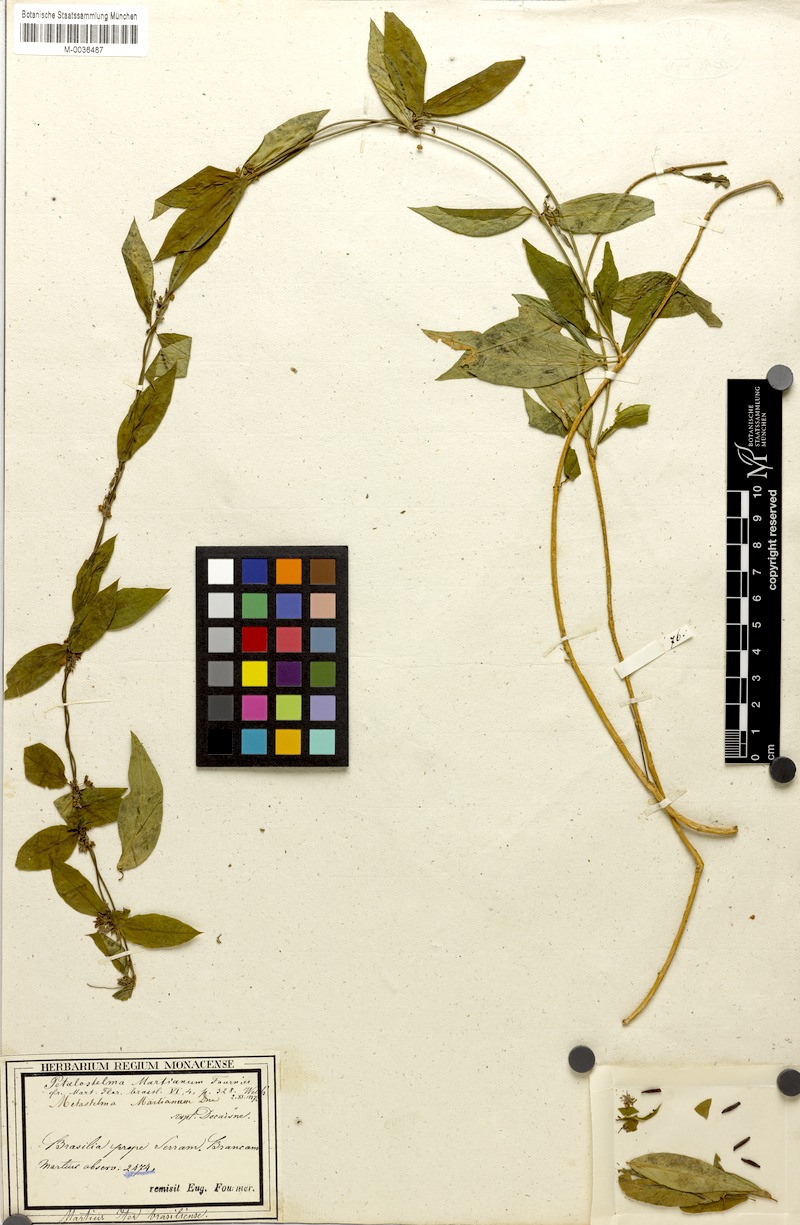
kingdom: Plantae
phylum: Tracheophyta
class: Magnoliopsida
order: Gentianales
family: Apocynaceae
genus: Petalostelma
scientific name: Petalostelma martianum
